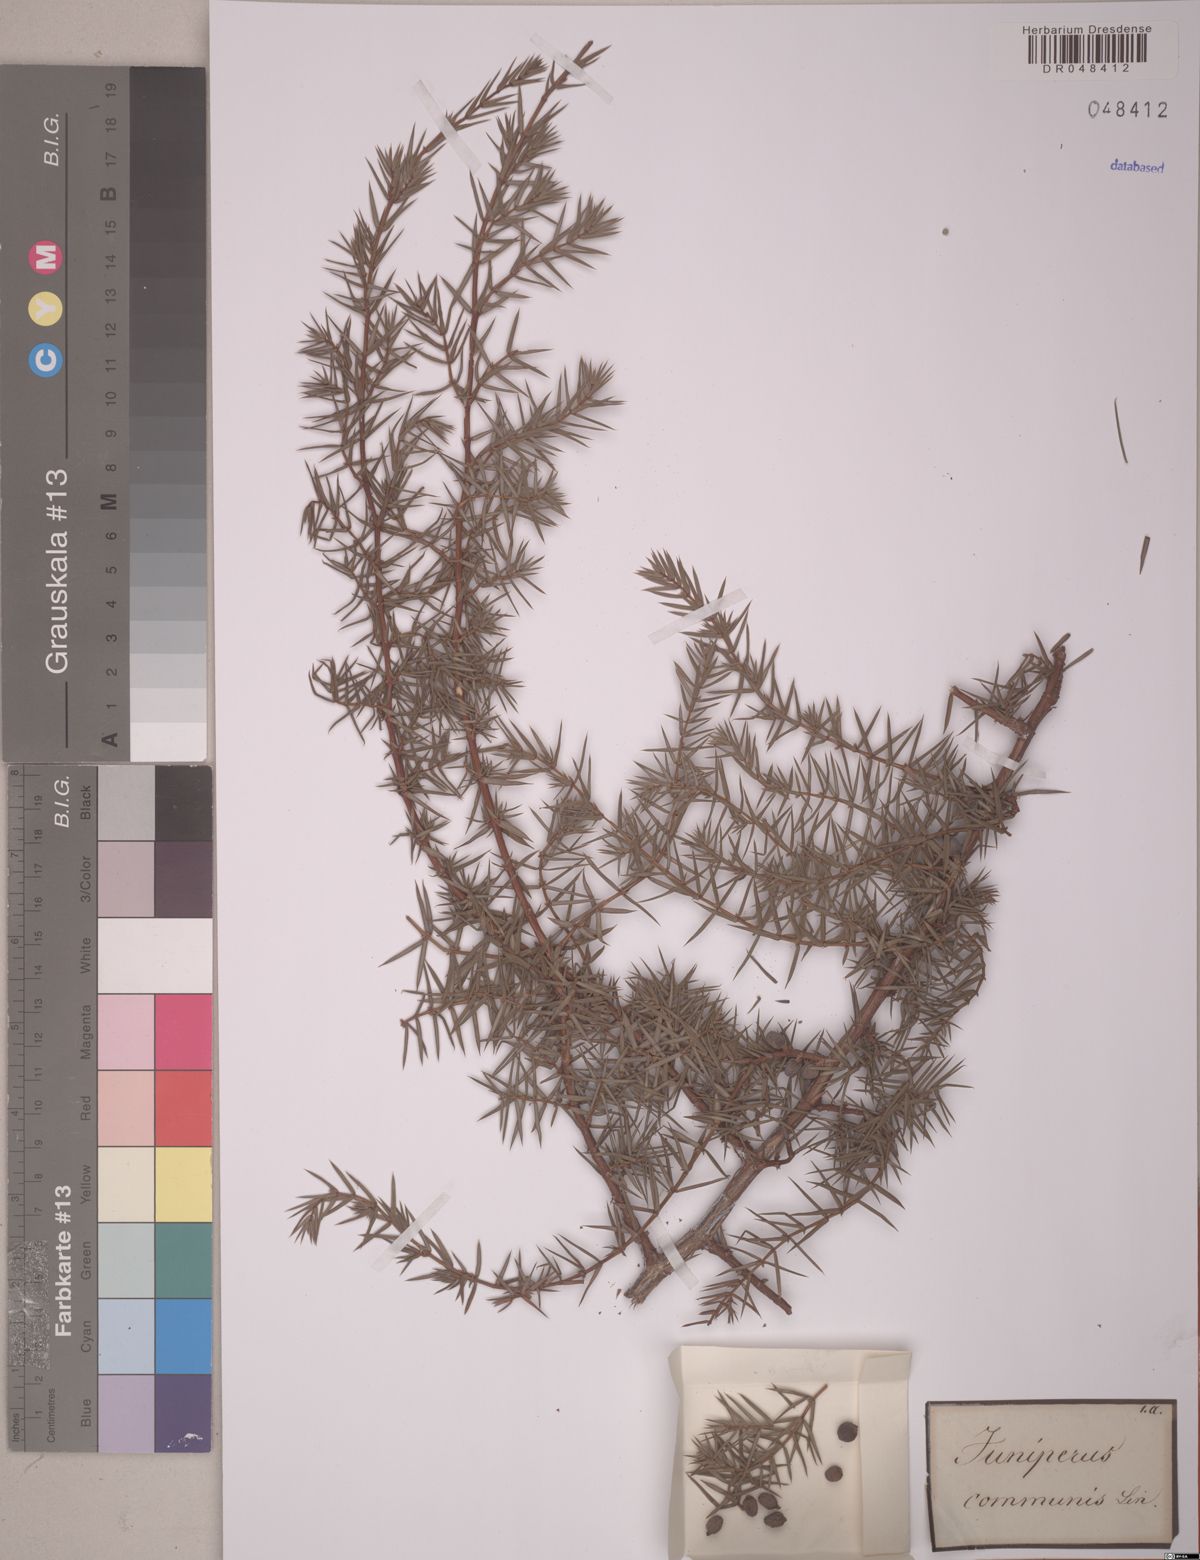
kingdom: Plantae
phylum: Tracheophyta
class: Pinopsida
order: Pinales
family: Cupressaceae
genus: Juniperus
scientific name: Juniperus communis
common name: Common juniper
